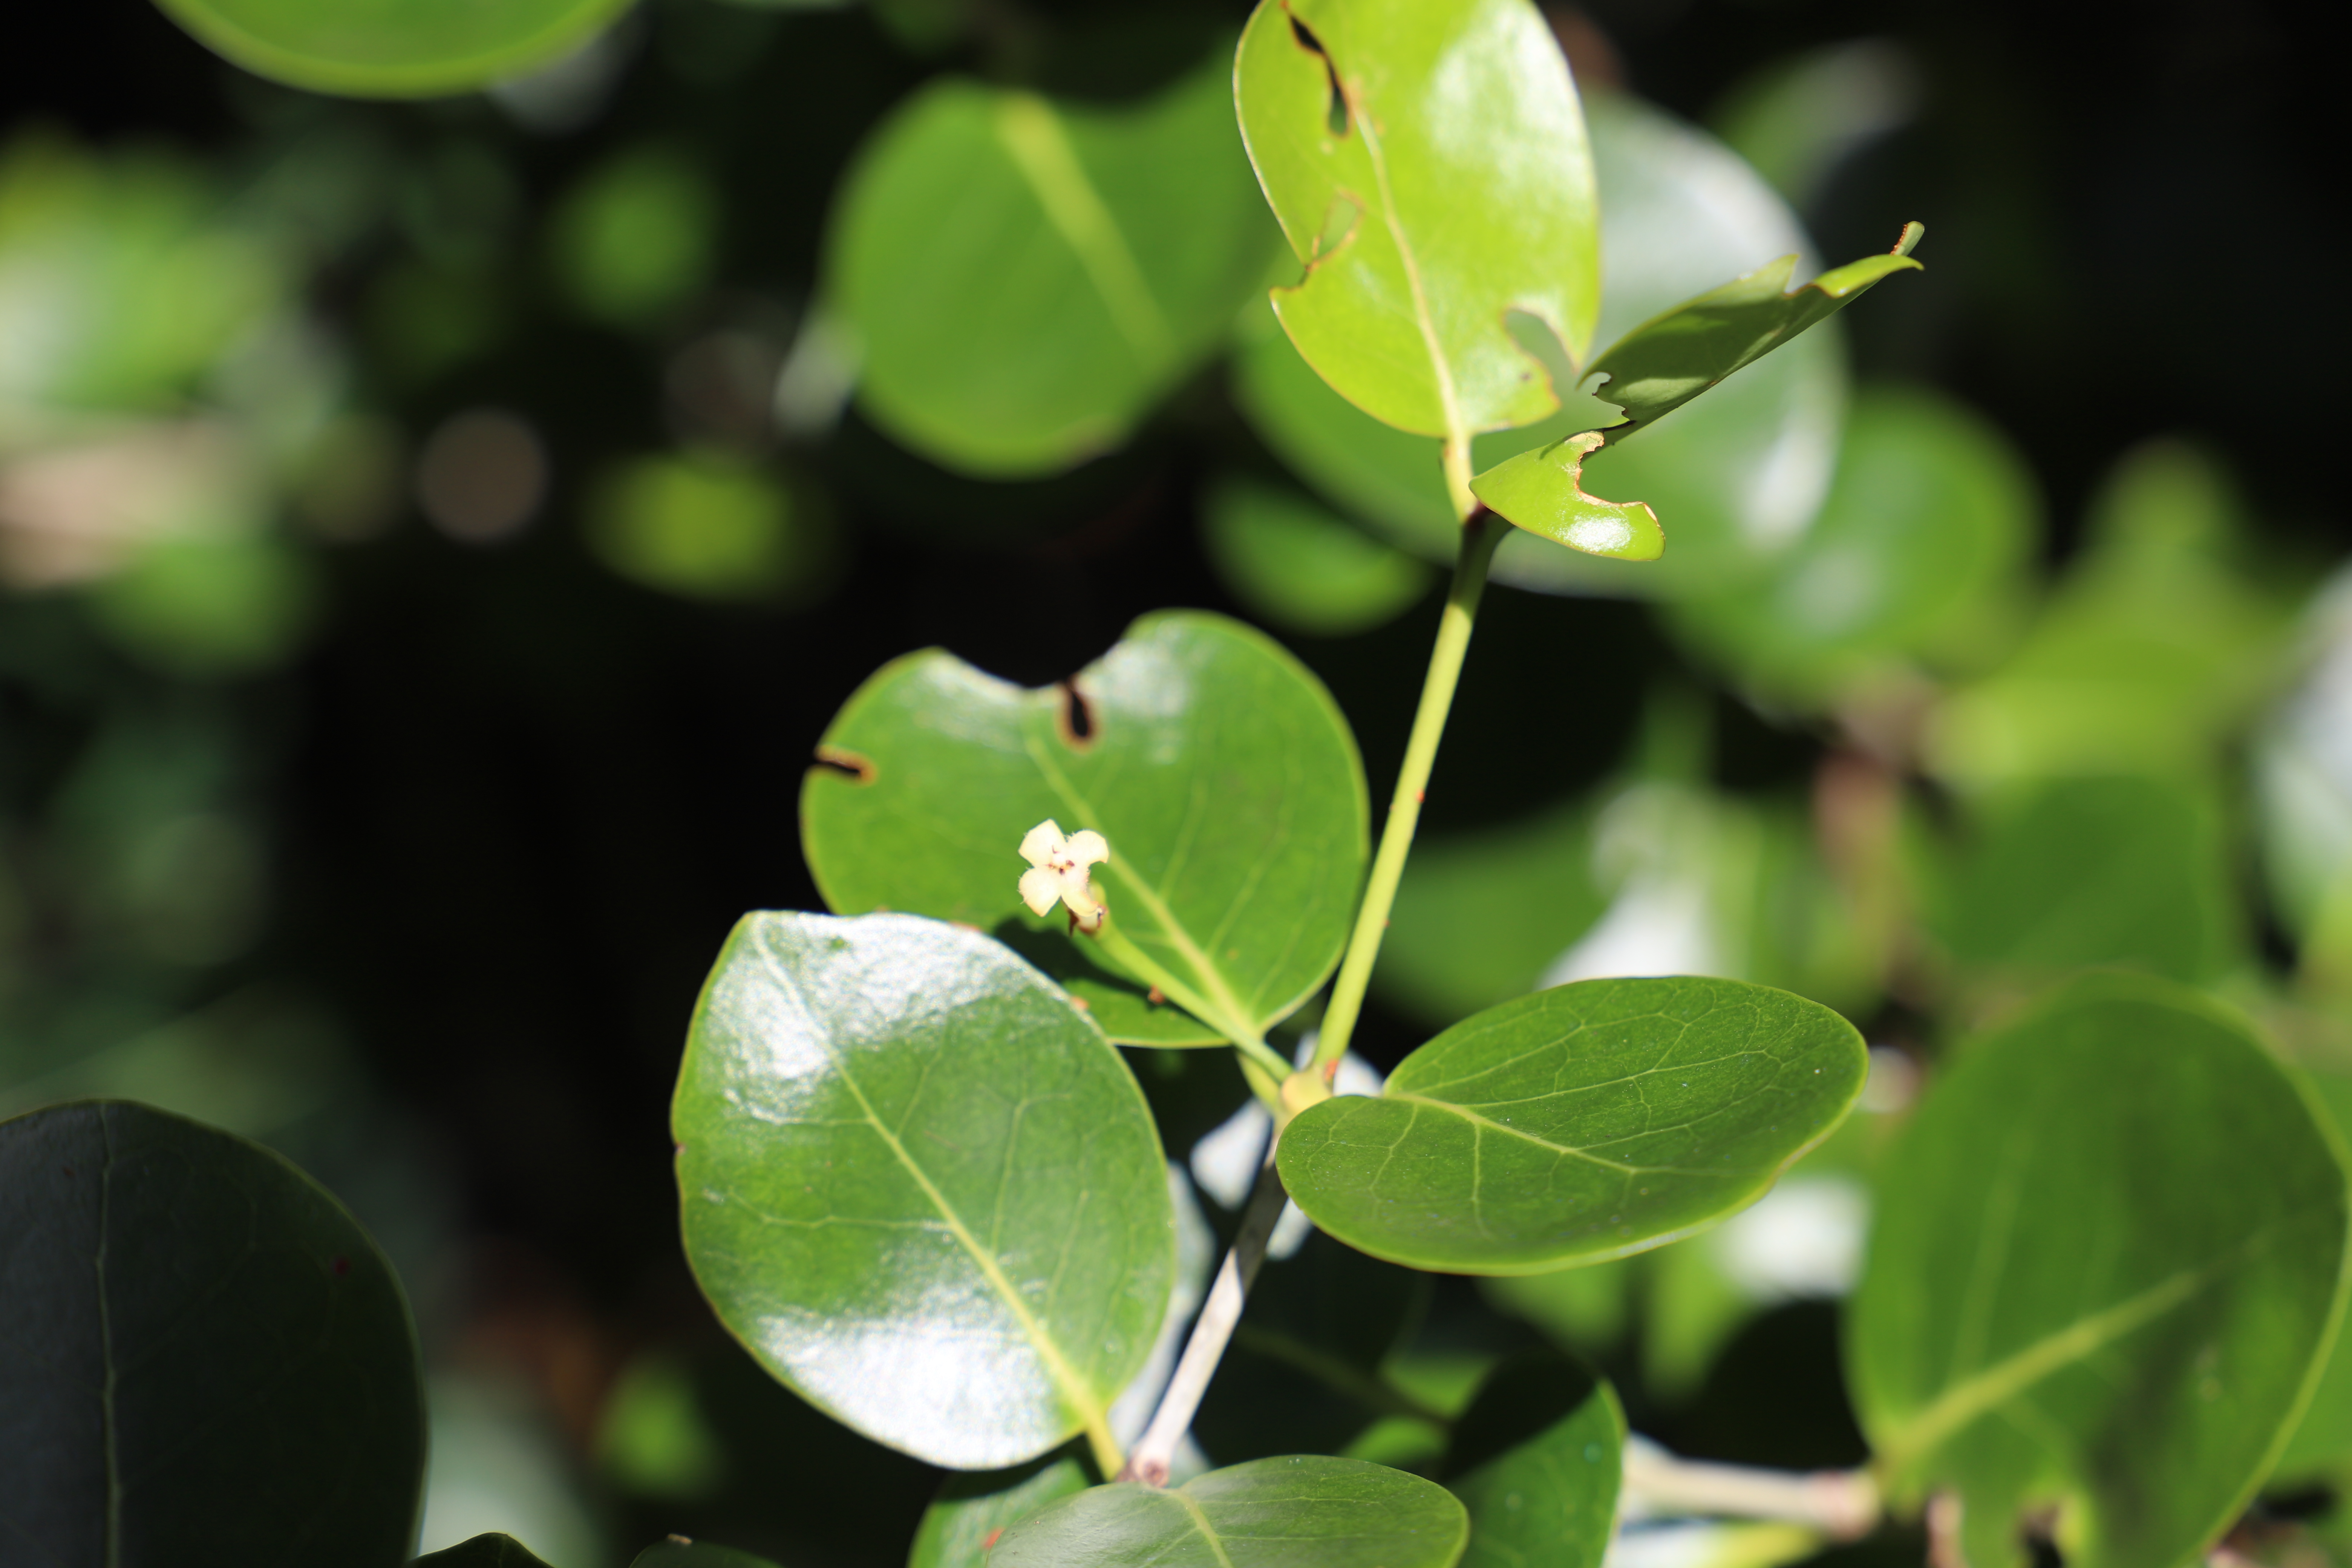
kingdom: Plantae
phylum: Tracheophyta
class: Magnoliopsida
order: Gentianales
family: Rubiaceae
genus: Pyrostria
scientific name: Pyrostria
